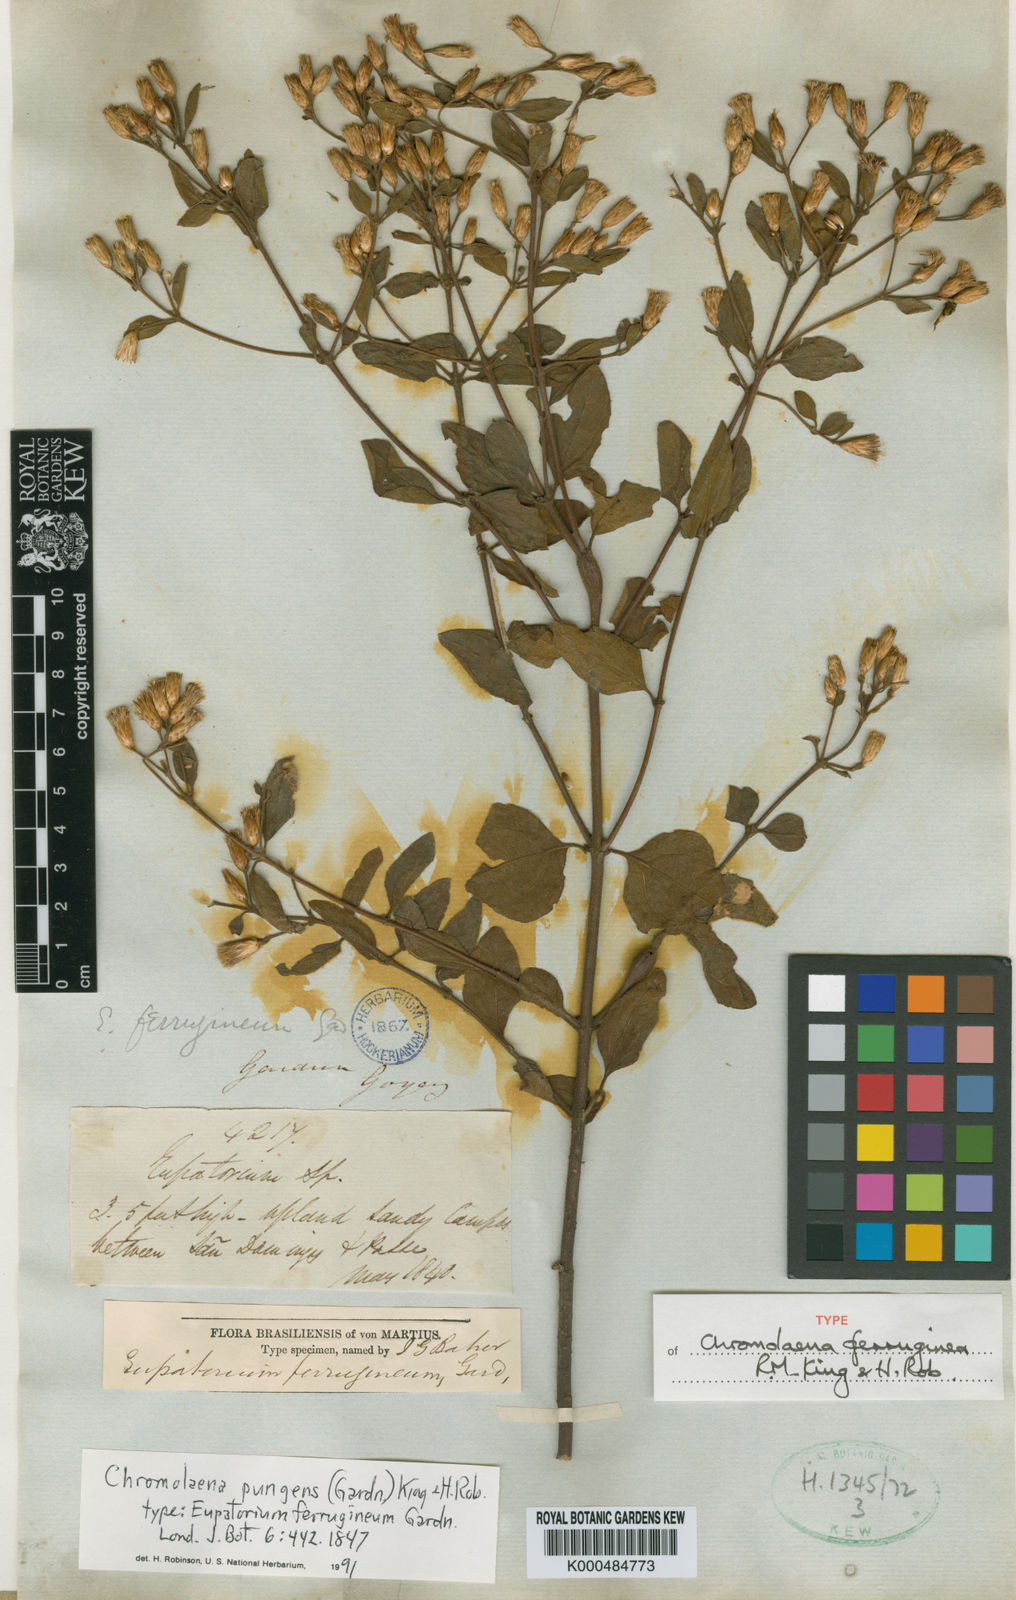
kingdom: Plantae
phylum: Tracheophyta
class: Magnoliopsida
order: Asterales
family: Asteraceae
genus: Chromolaena
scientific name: Chromolaena pungens
